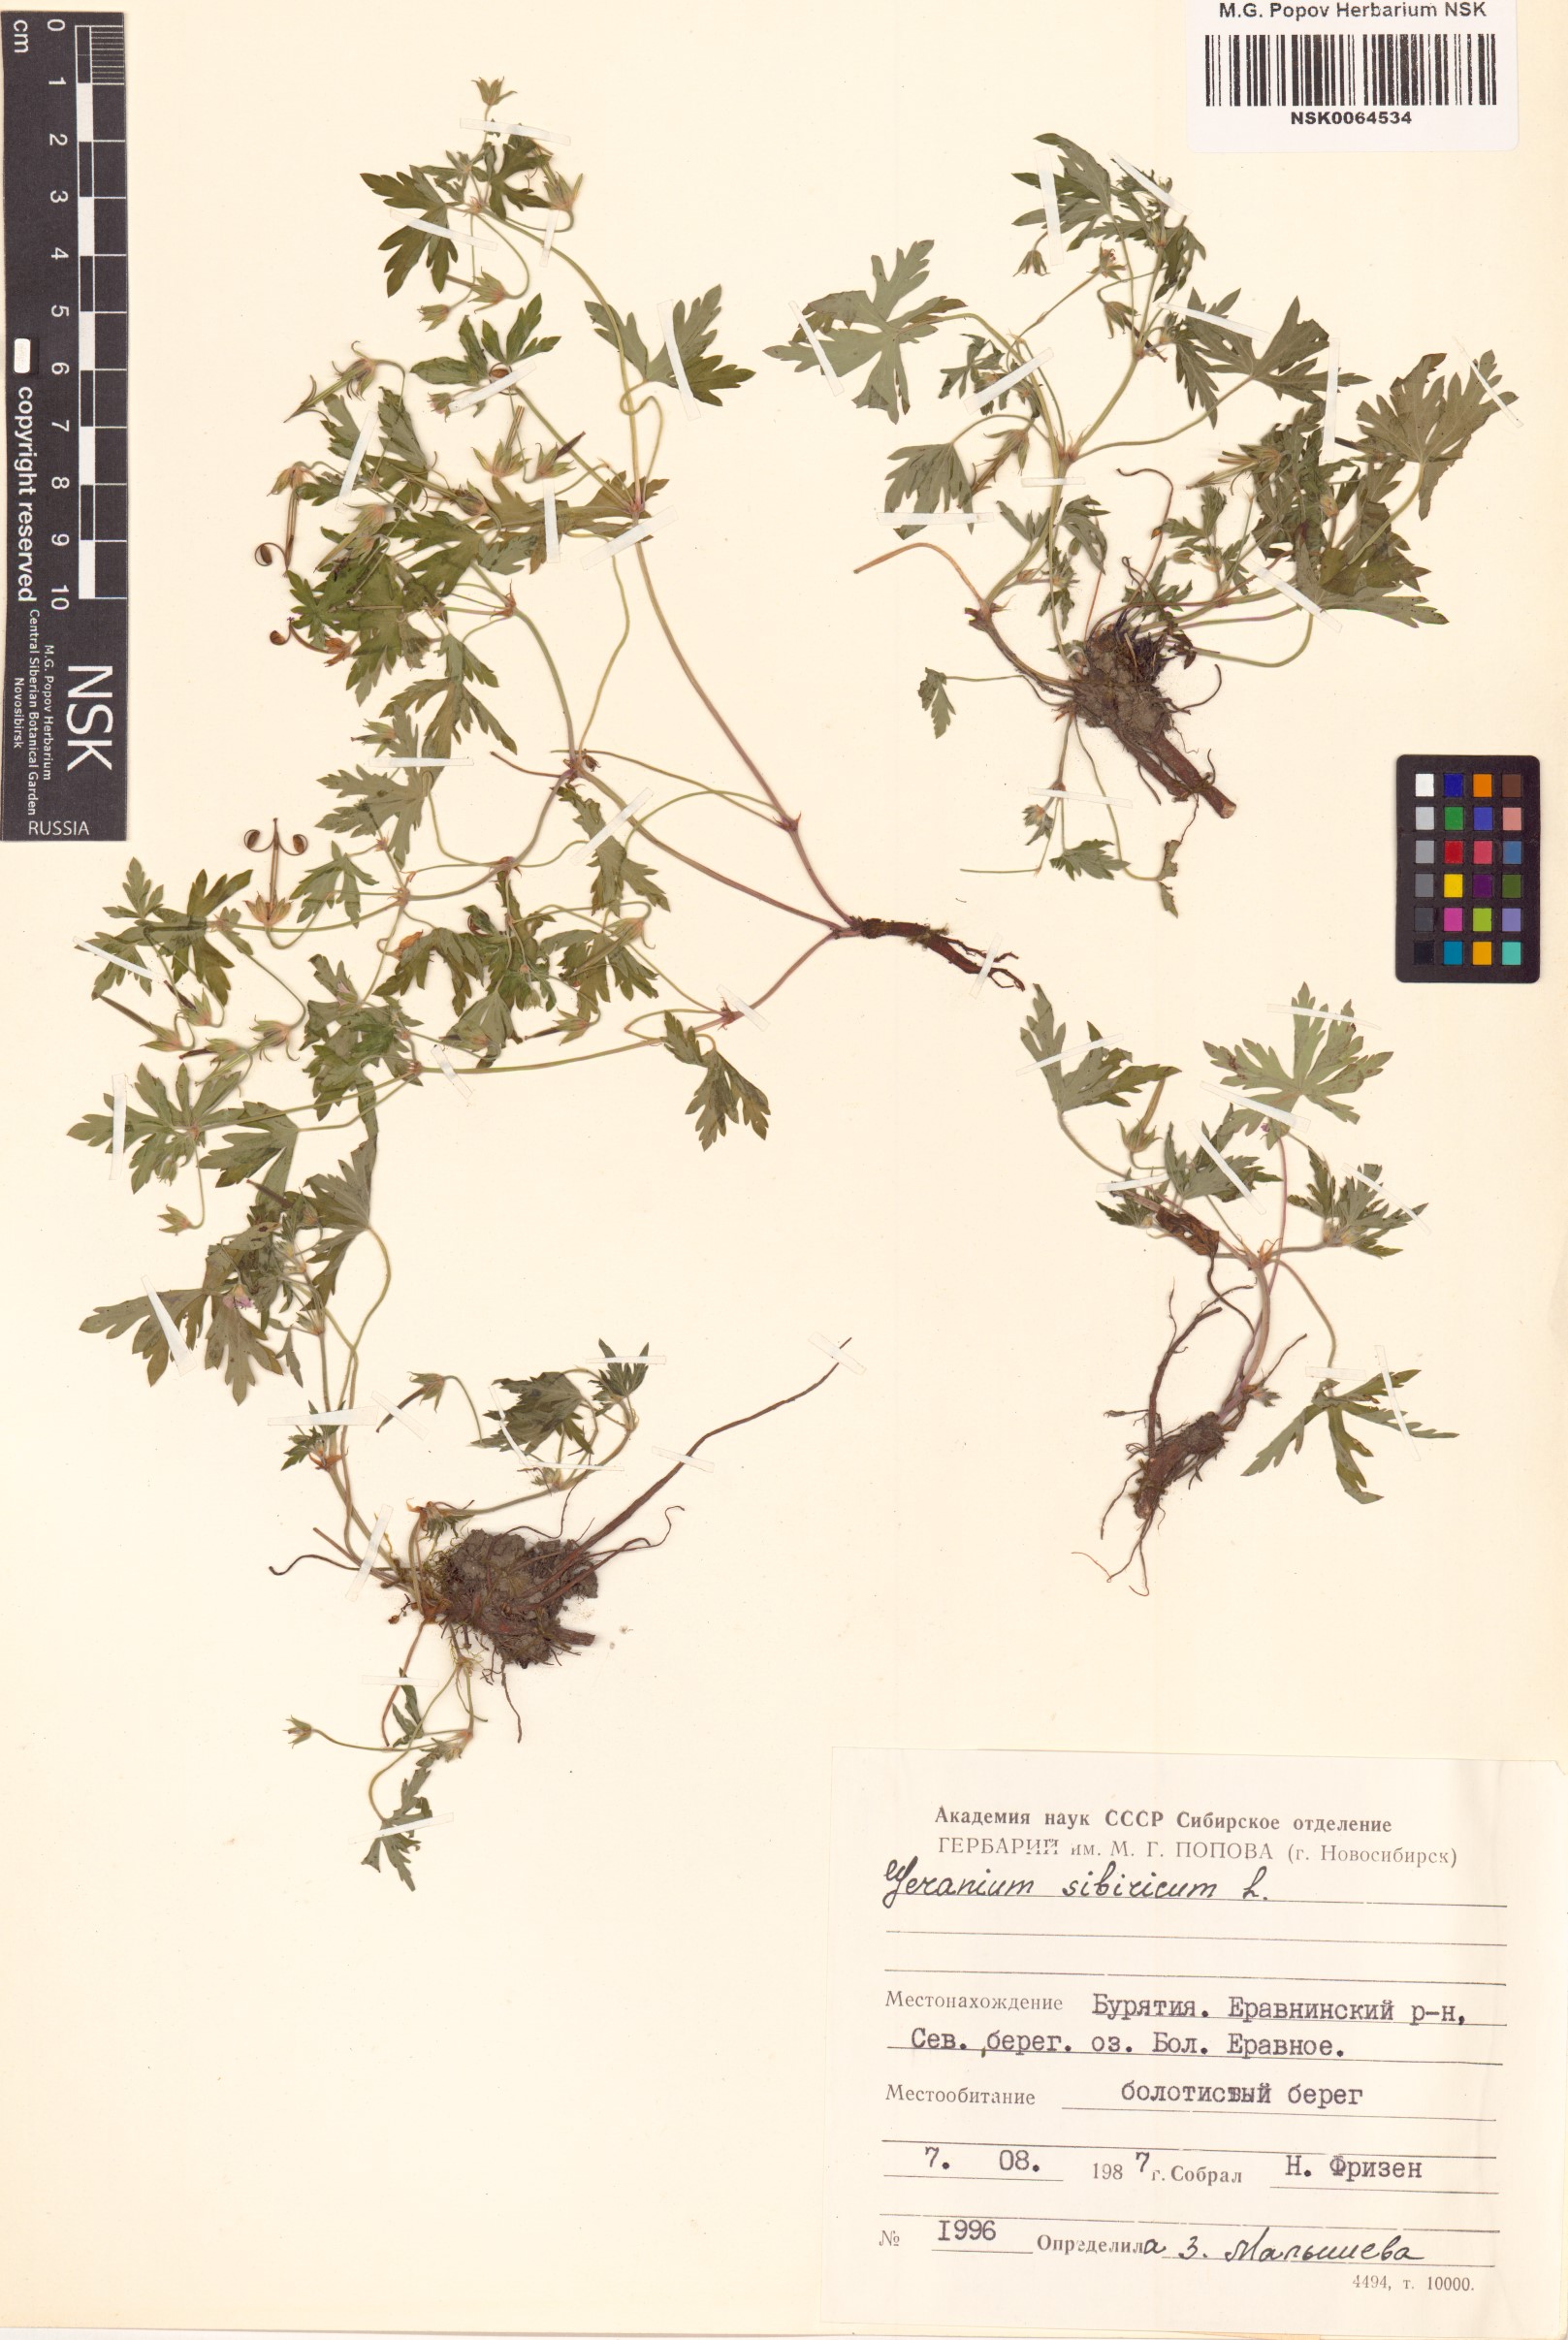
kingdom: Plantae
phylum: Tracheophyta
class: Magnoliopsida
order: Geraniales
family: Geraniaceae
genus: Geranium
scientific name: Geranium sibiricum
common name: Siberian crane's-bill
